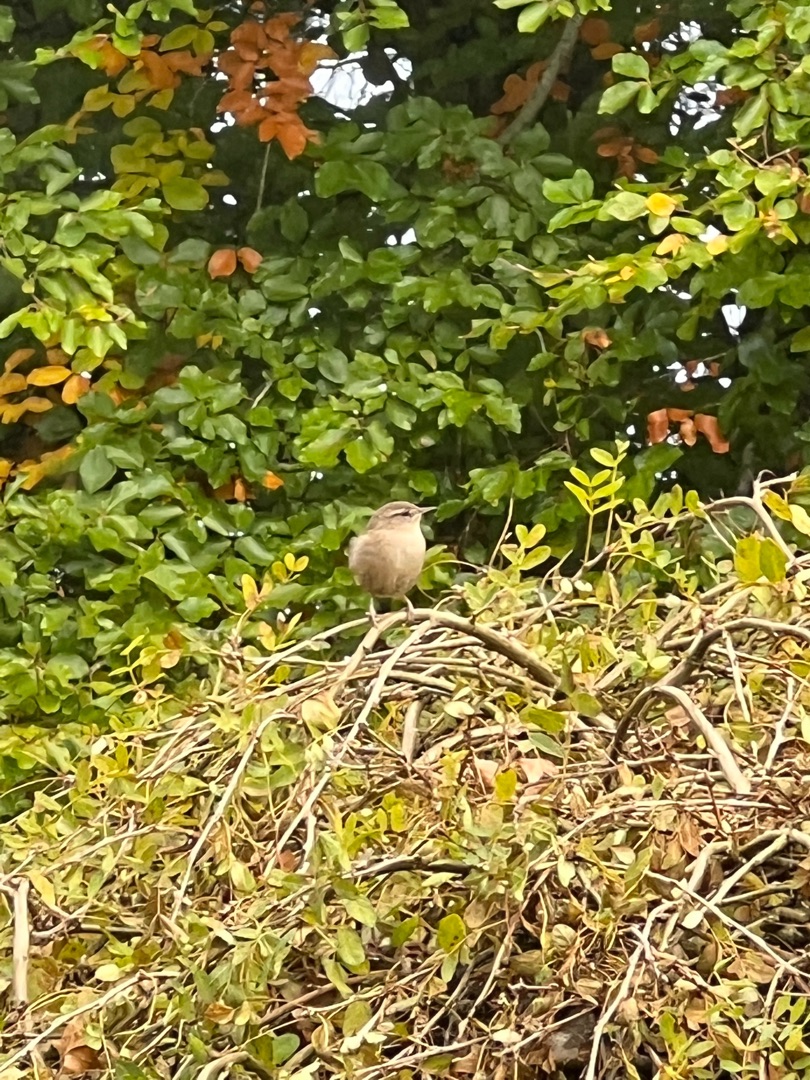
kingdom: Animalia
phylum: Chordata
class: Aves
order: Passeriformes
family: Troglodytidae
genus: Troglodytes
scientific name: Troglodytes troglodytes
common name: Gærdesmutte
